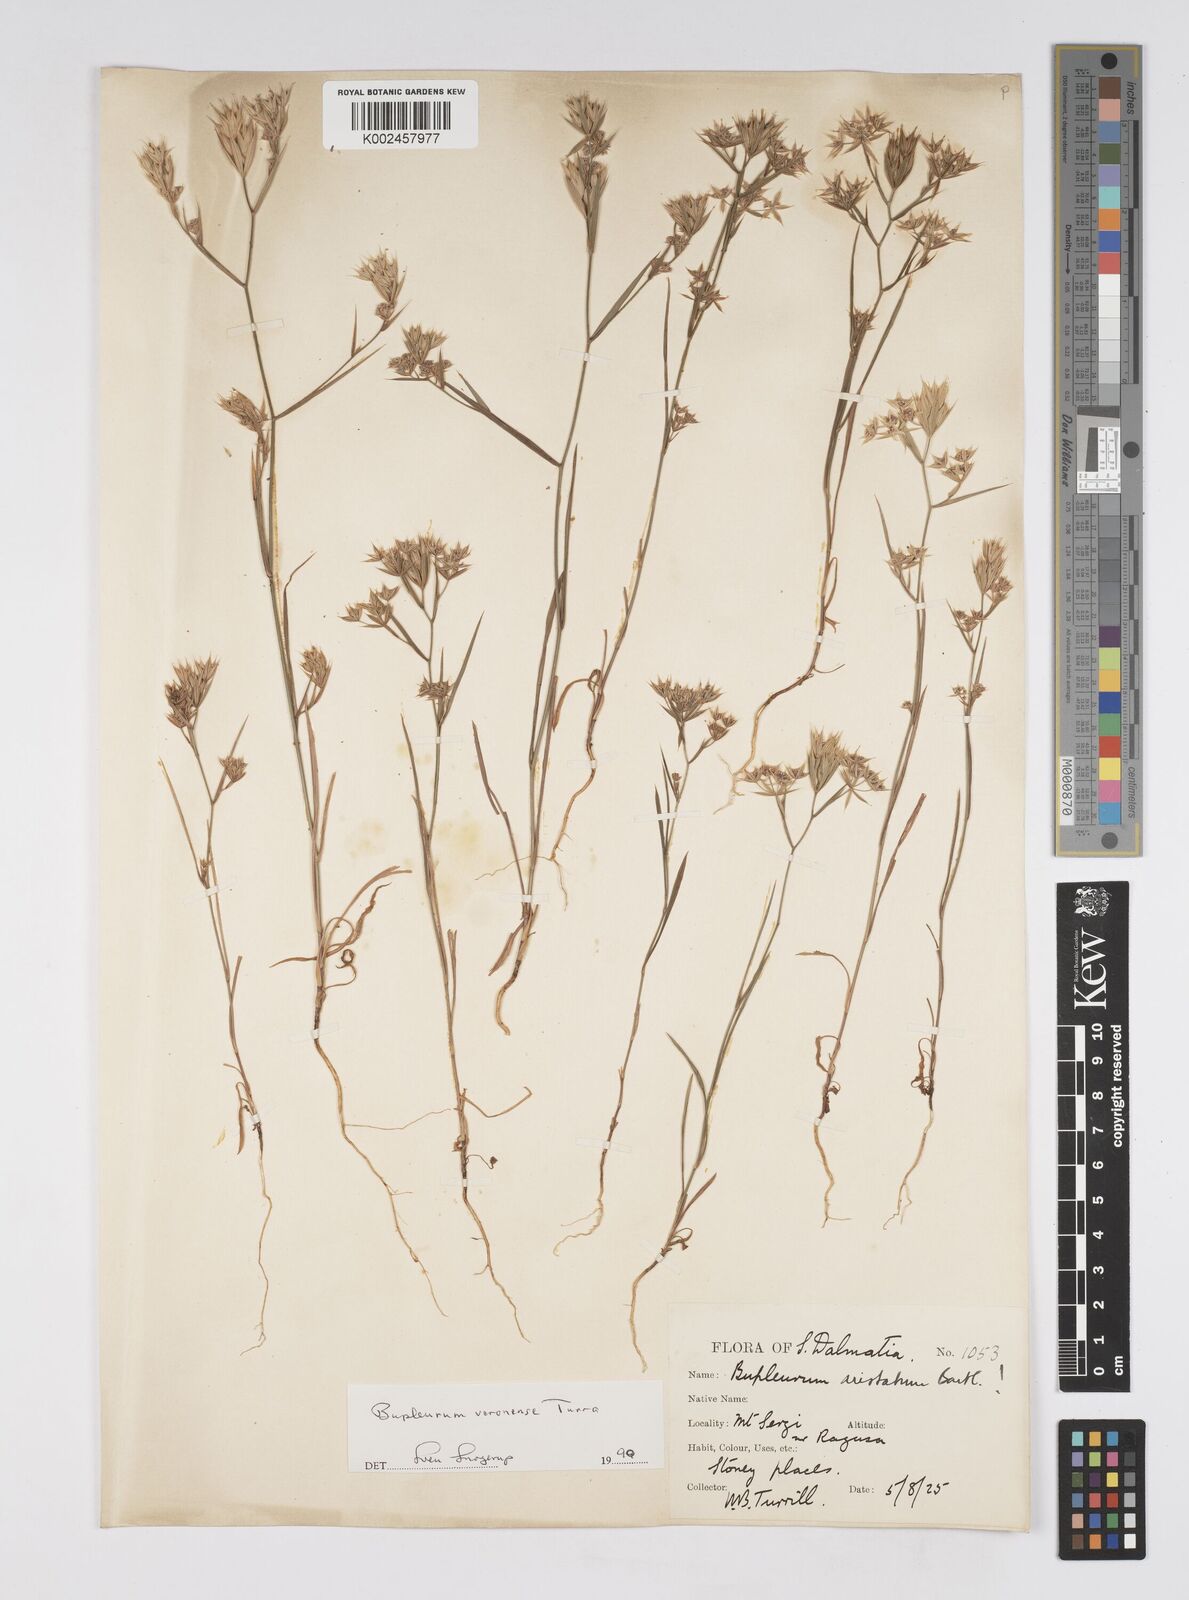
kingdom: Plantae
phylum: Tracheophyta
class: Magnoliopsida
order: Apiales
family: Apiaceae
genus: Bupleurum
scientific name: Bupleurum glumaceum
